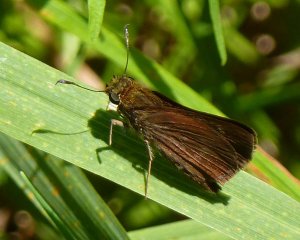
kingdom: Animalia
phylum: Arthropoda
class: Insecta
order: Lepidoptera
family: Hesperiidae
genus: Euphyes
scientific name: Euphyes vestris
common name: Dun Skipper
